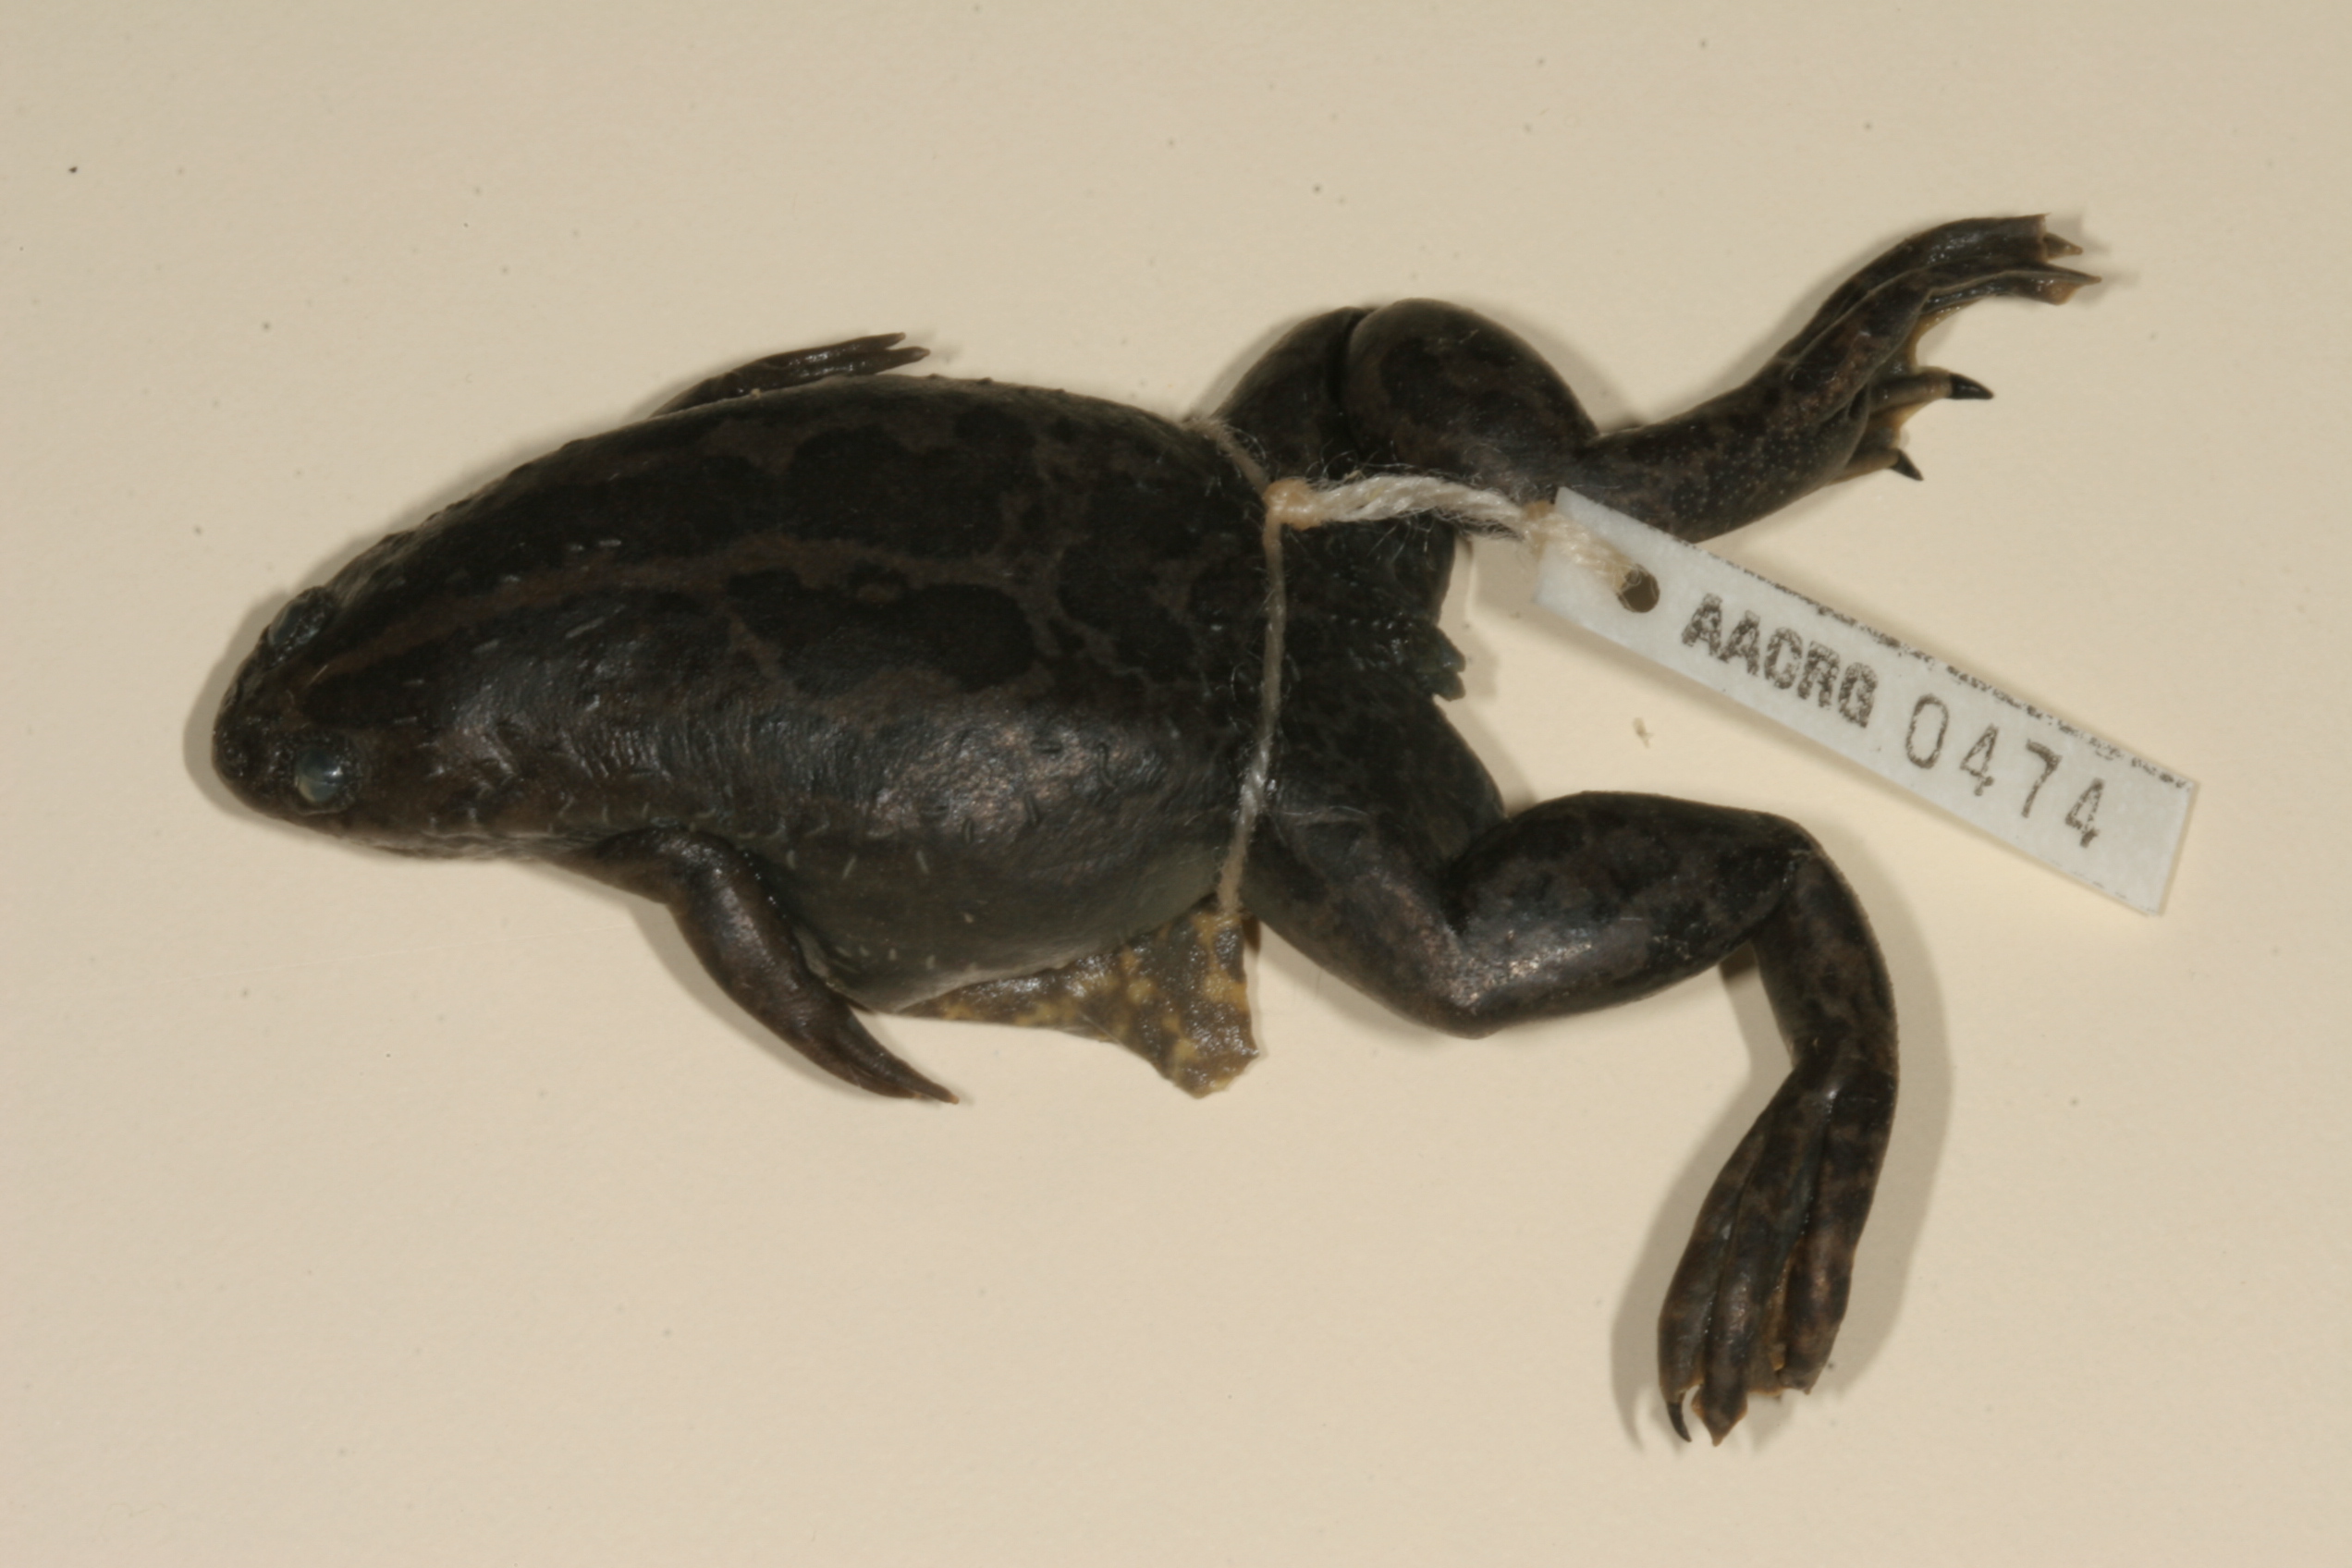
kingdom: Animalia
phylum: Chordata
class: Amphibia
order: Anura
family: Pipidae
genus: Xenopus
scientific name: Xenopus gilli
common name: Gill's platanna
